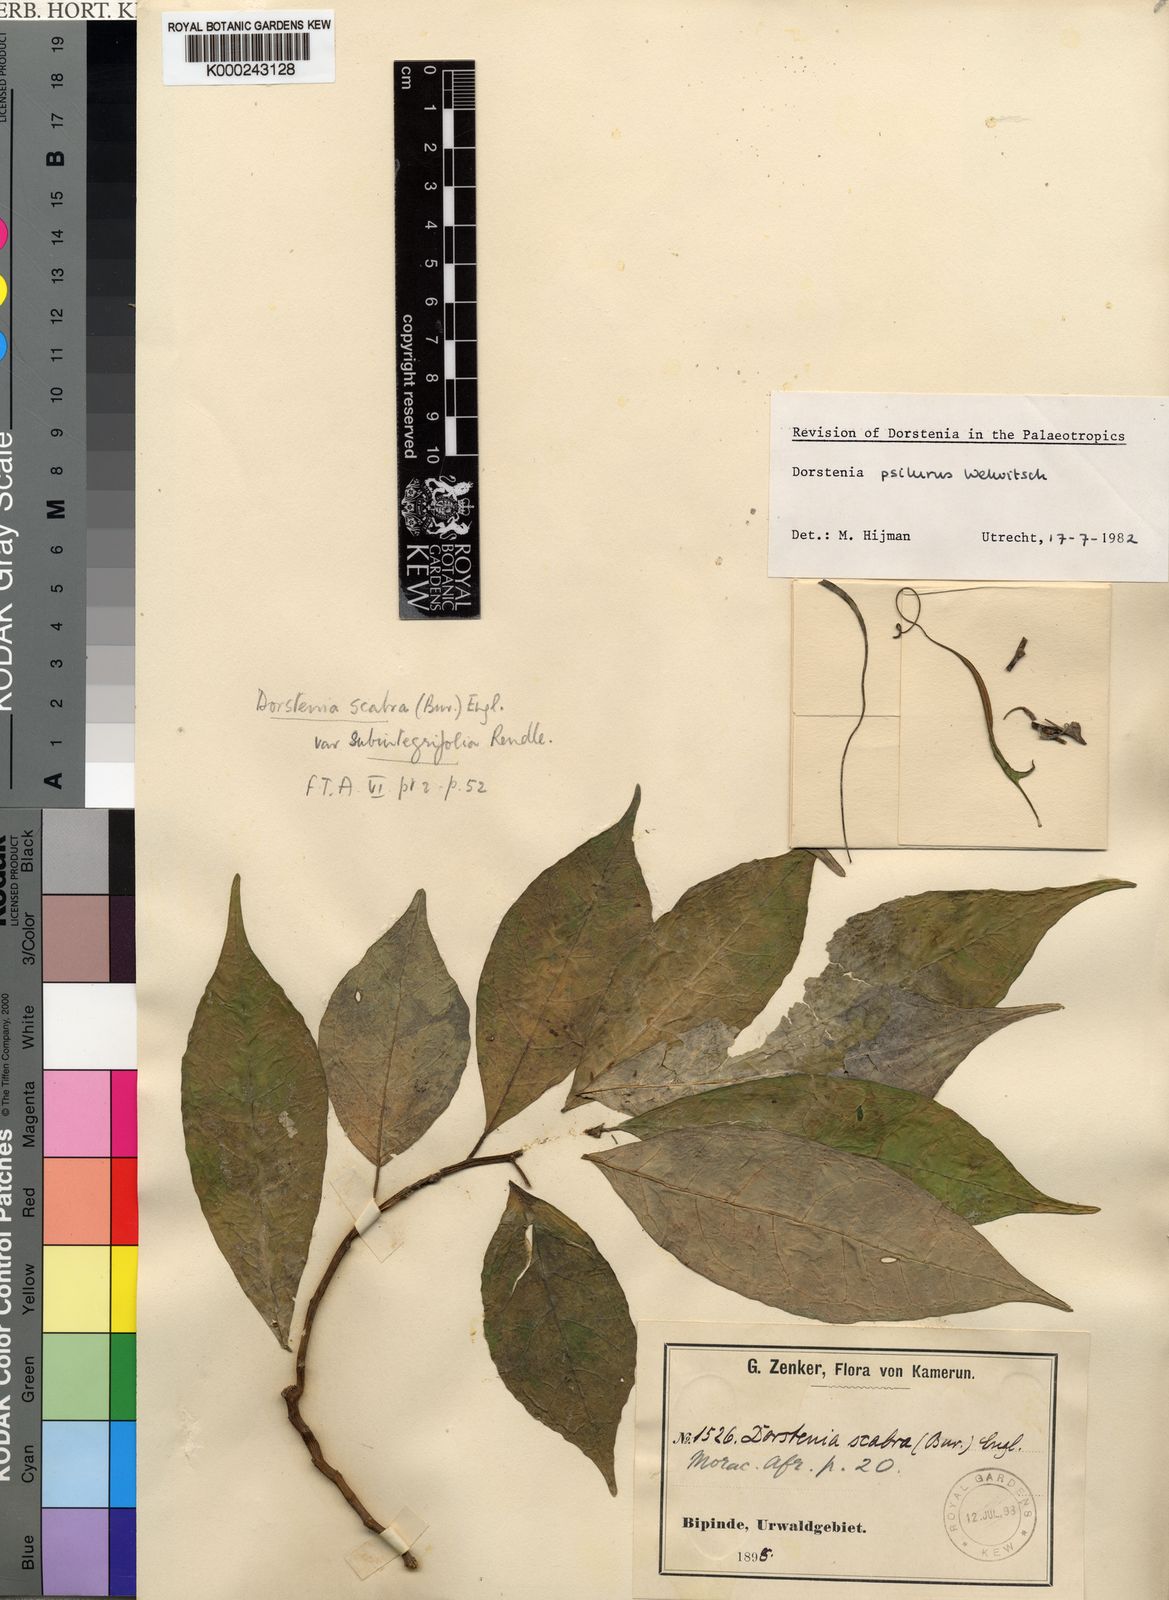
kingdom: Plantae
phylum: Tracheophyta
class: Magnoliopsida
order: Rosales
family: Moraceae
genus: Dorstenia
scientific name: Dorstenia psilurus
